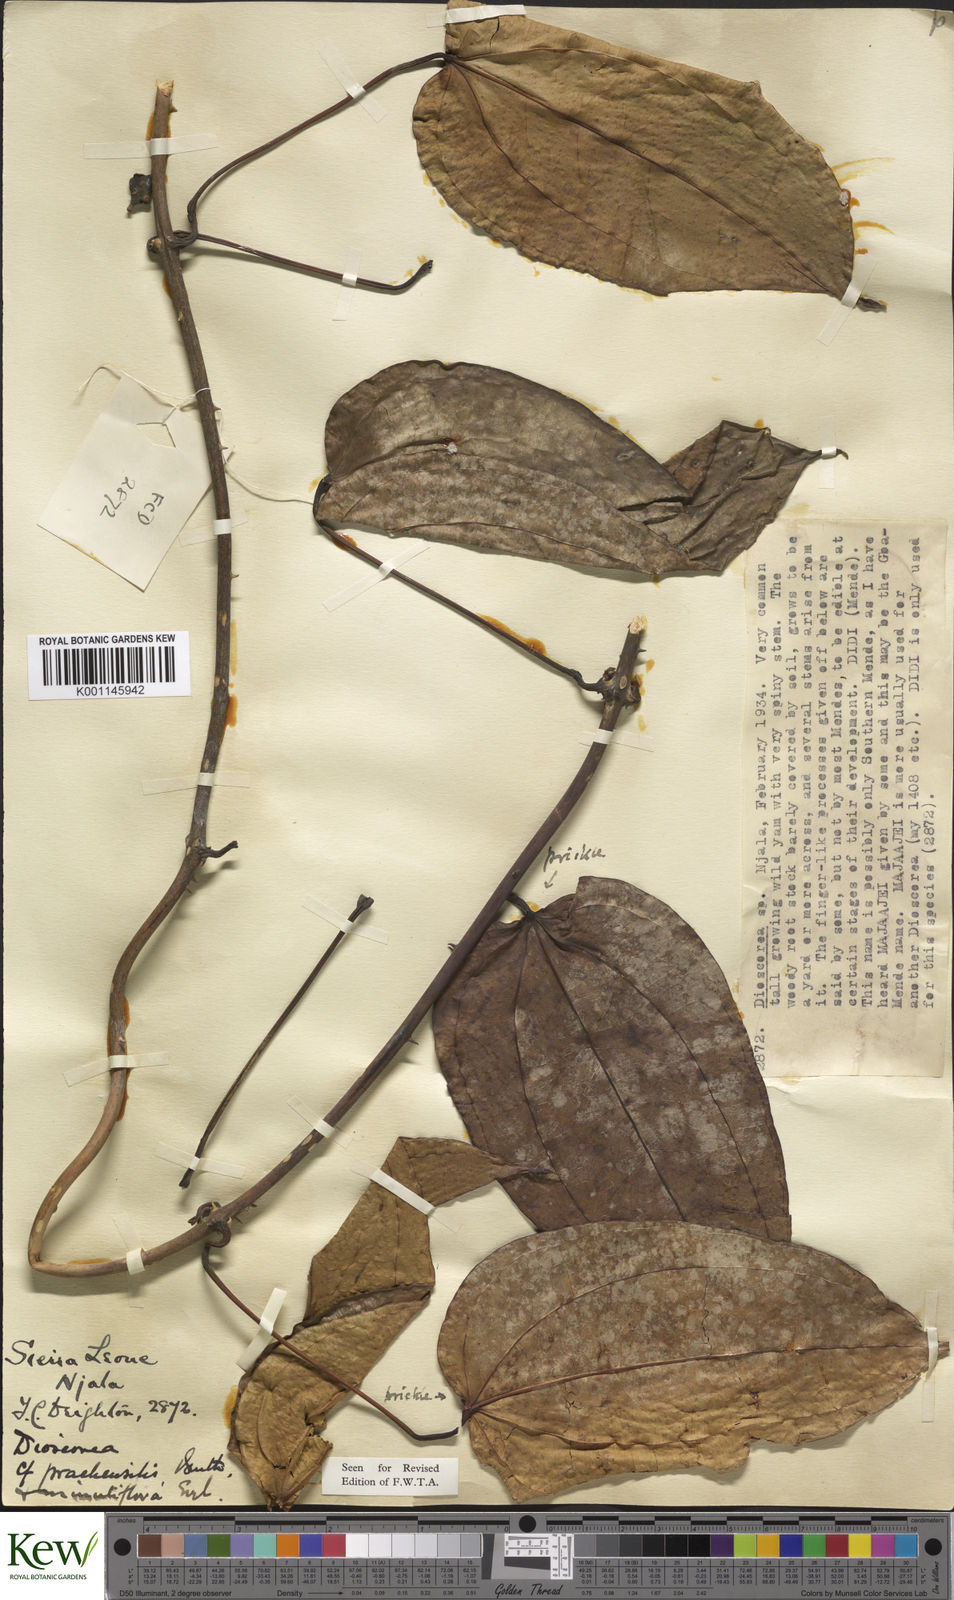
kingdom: Plantae
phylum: Tracheophyta
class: Liliopsida
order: Dioscoreales
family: Dioscoreaceae
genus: Dioscorea
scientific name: Dioscorea praehensilis
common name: Bush yam
